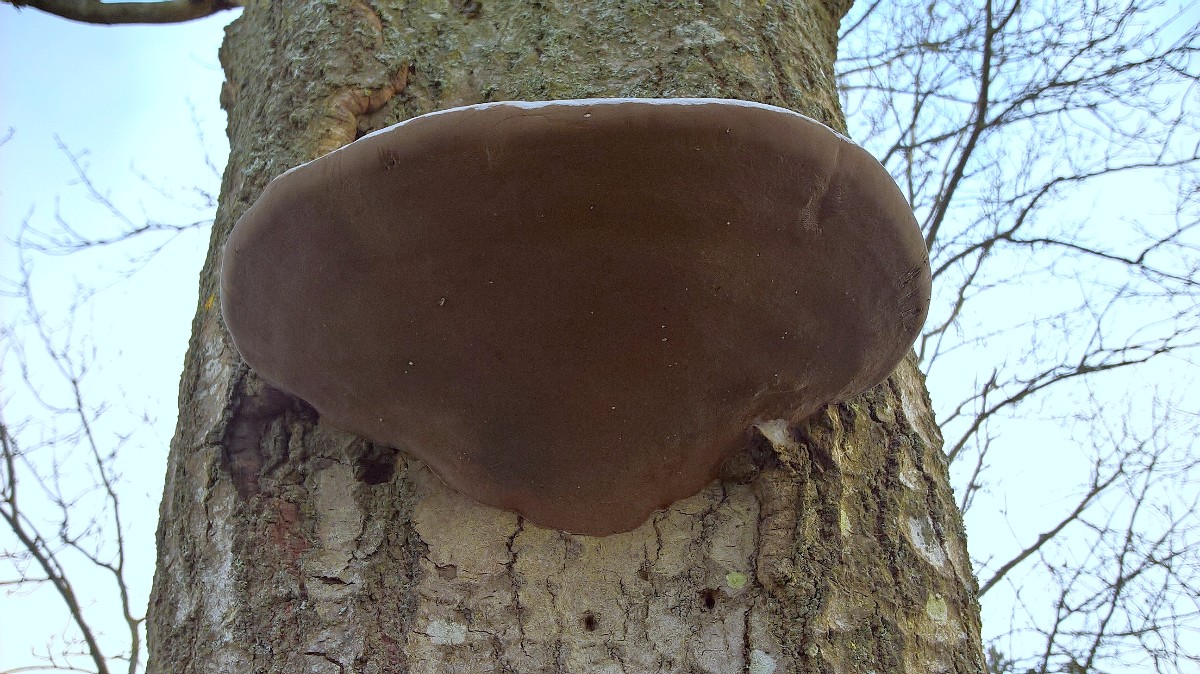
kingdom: Fungi
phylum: Basidiomycota
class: Agaricomycetes
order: Hymenochaetales
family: Hymenochaetaceae
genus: Phellinus
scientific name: Phellinus igniarius
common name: almindelig ildporesvamp
